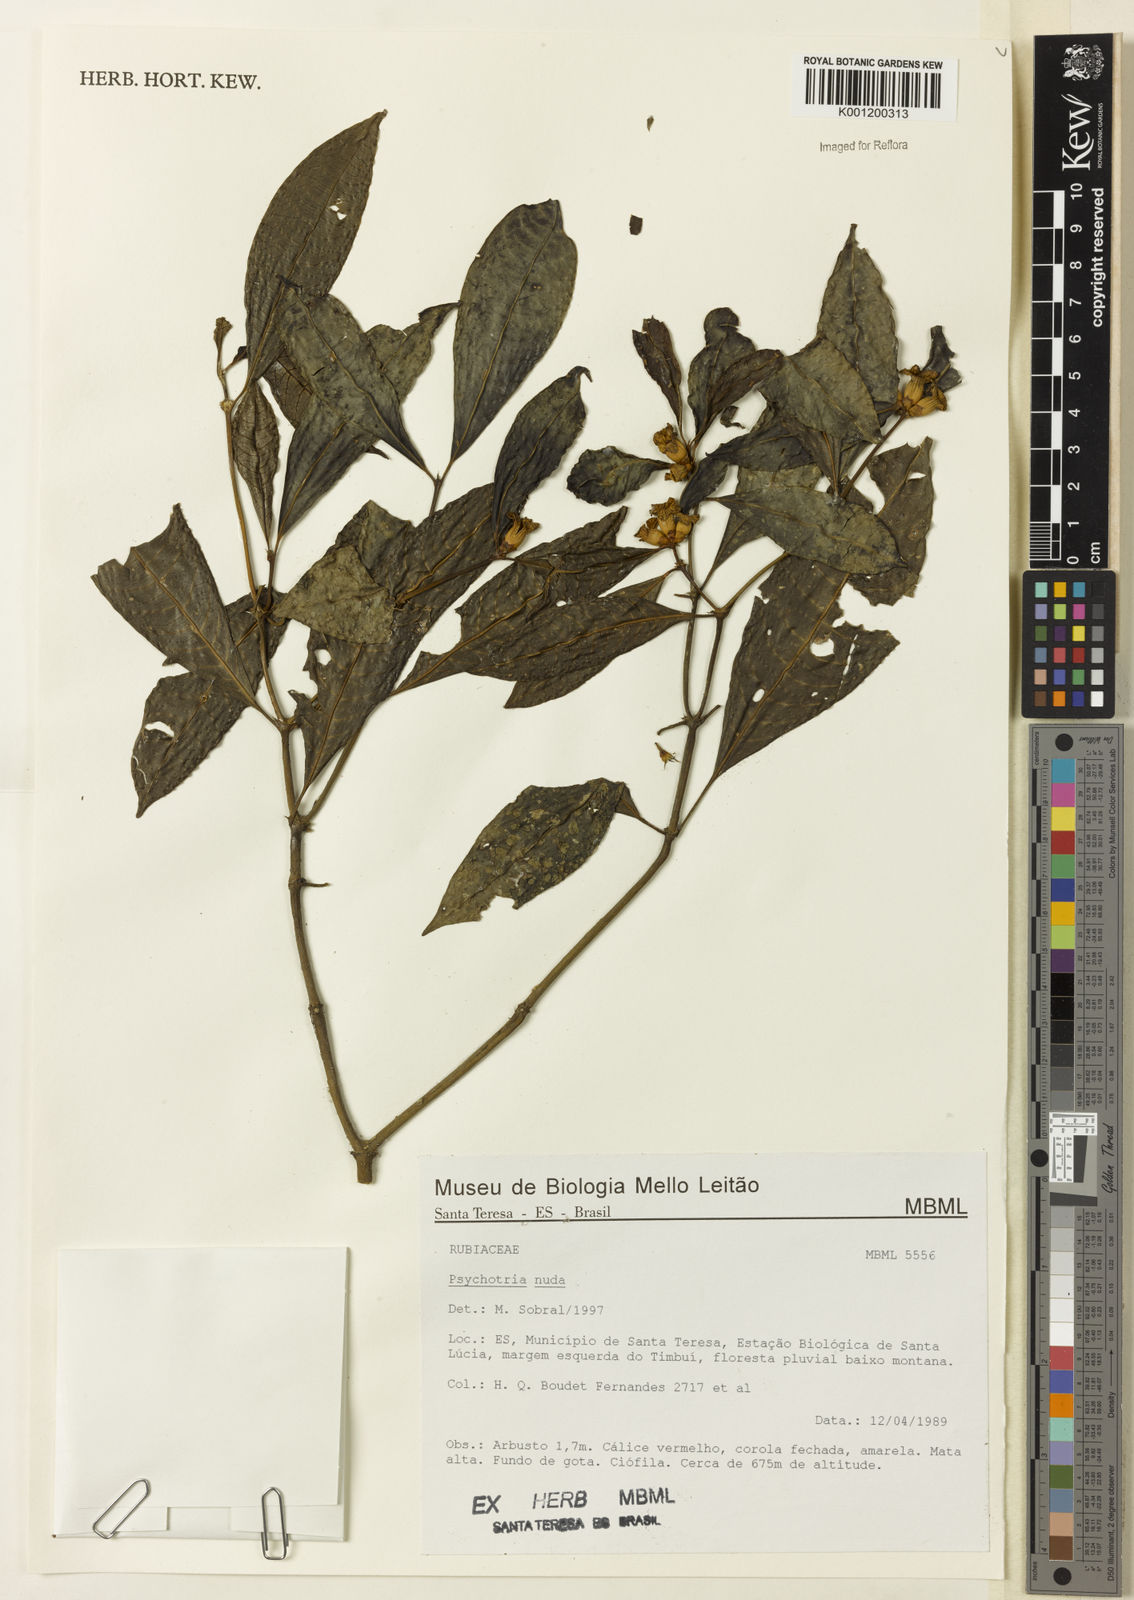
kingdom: Plantae
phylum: Tracheophyta
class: Magnoliopsida
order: Gentianales
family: Rubiaceae
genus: Psychotria
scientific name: Psychotria nuda
